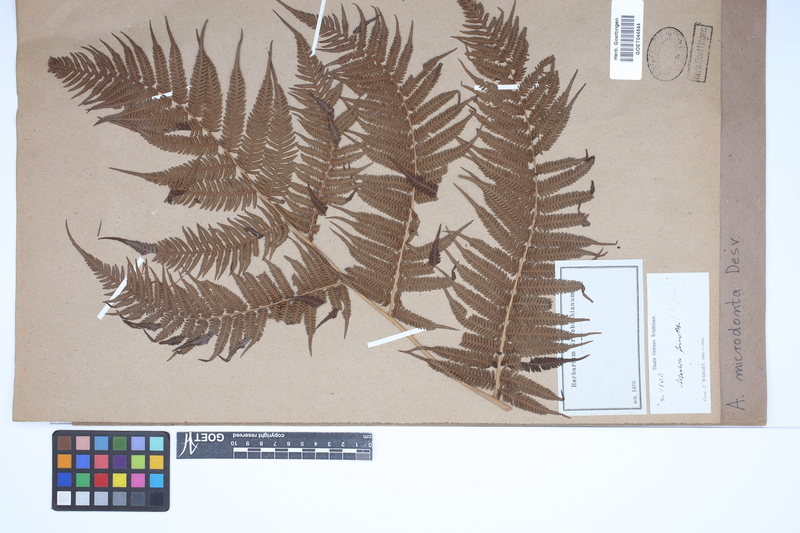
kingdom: Plantae
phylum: Tracheophyta
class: Polypodiopsida
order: Cyatheales
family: Cyatheaceae
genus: Cyathea
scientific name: Cyathea microdonta
